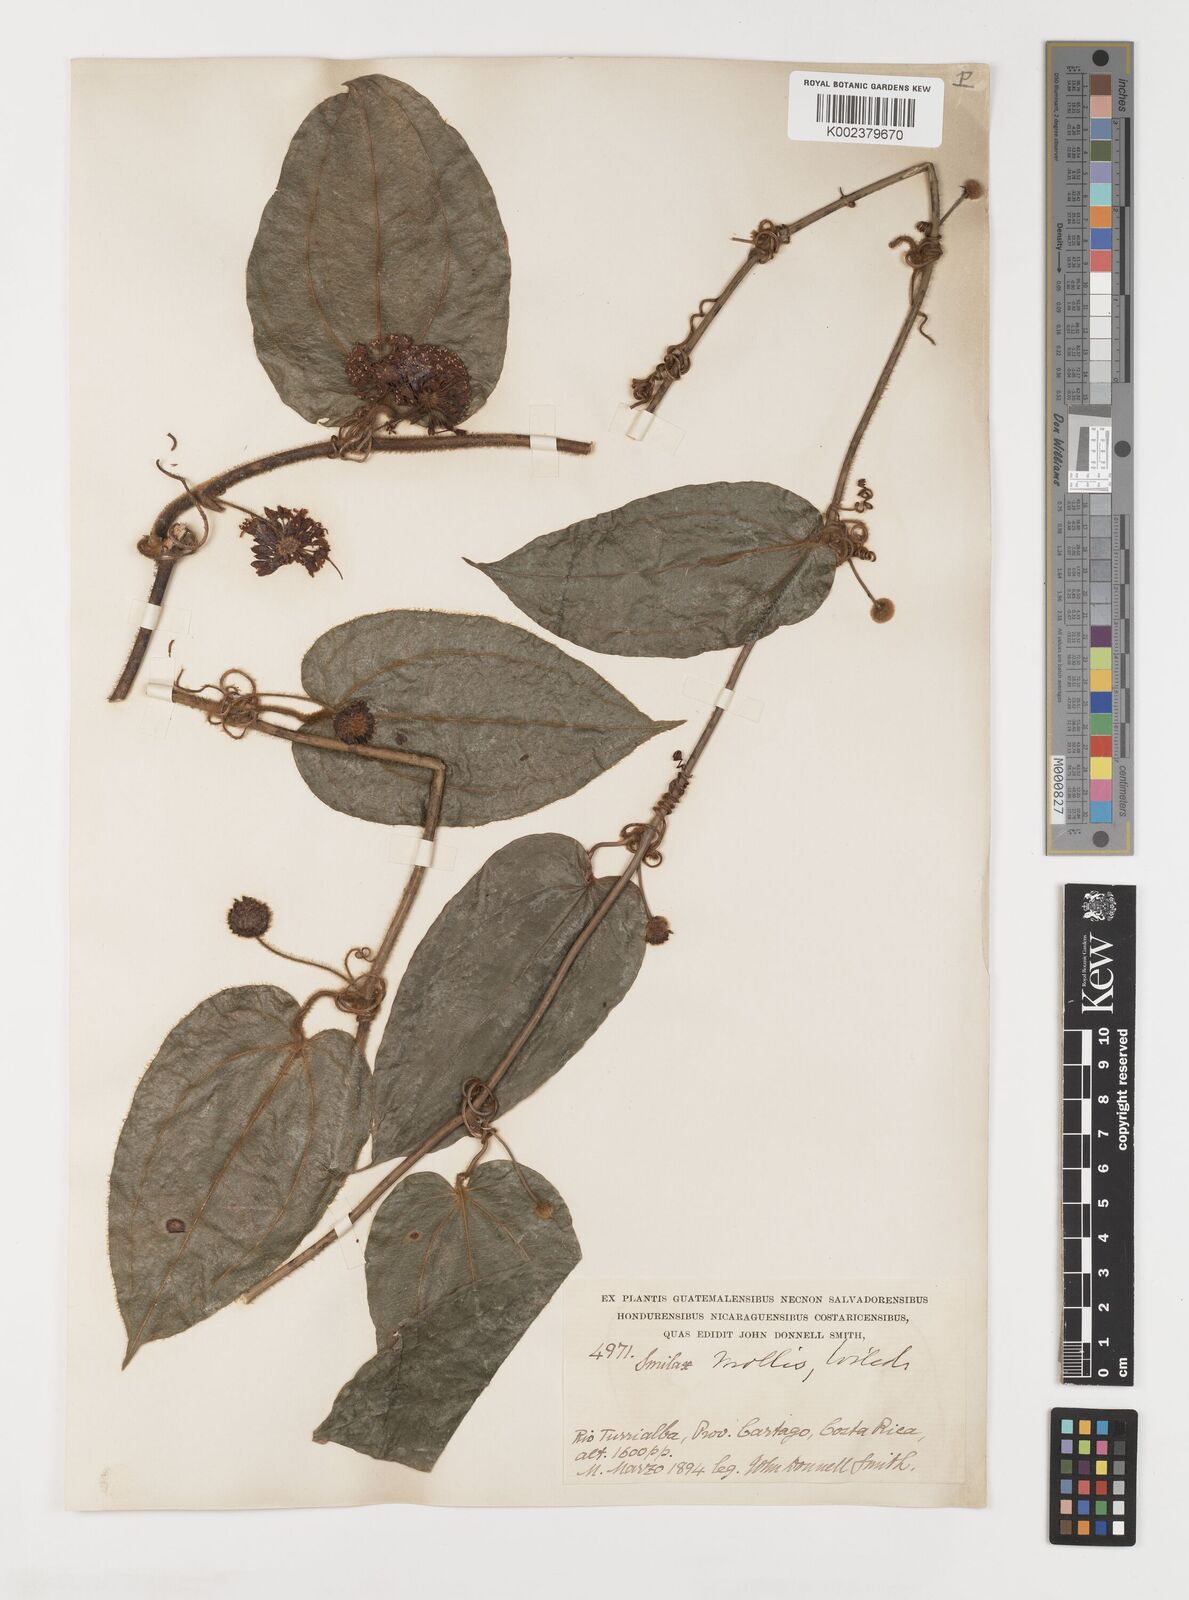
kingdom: Plantae
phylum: Tracheophyta
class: Liliopsida
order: Liliales
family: Smilacaceae
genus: Smilax
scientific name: Smilax mollis
